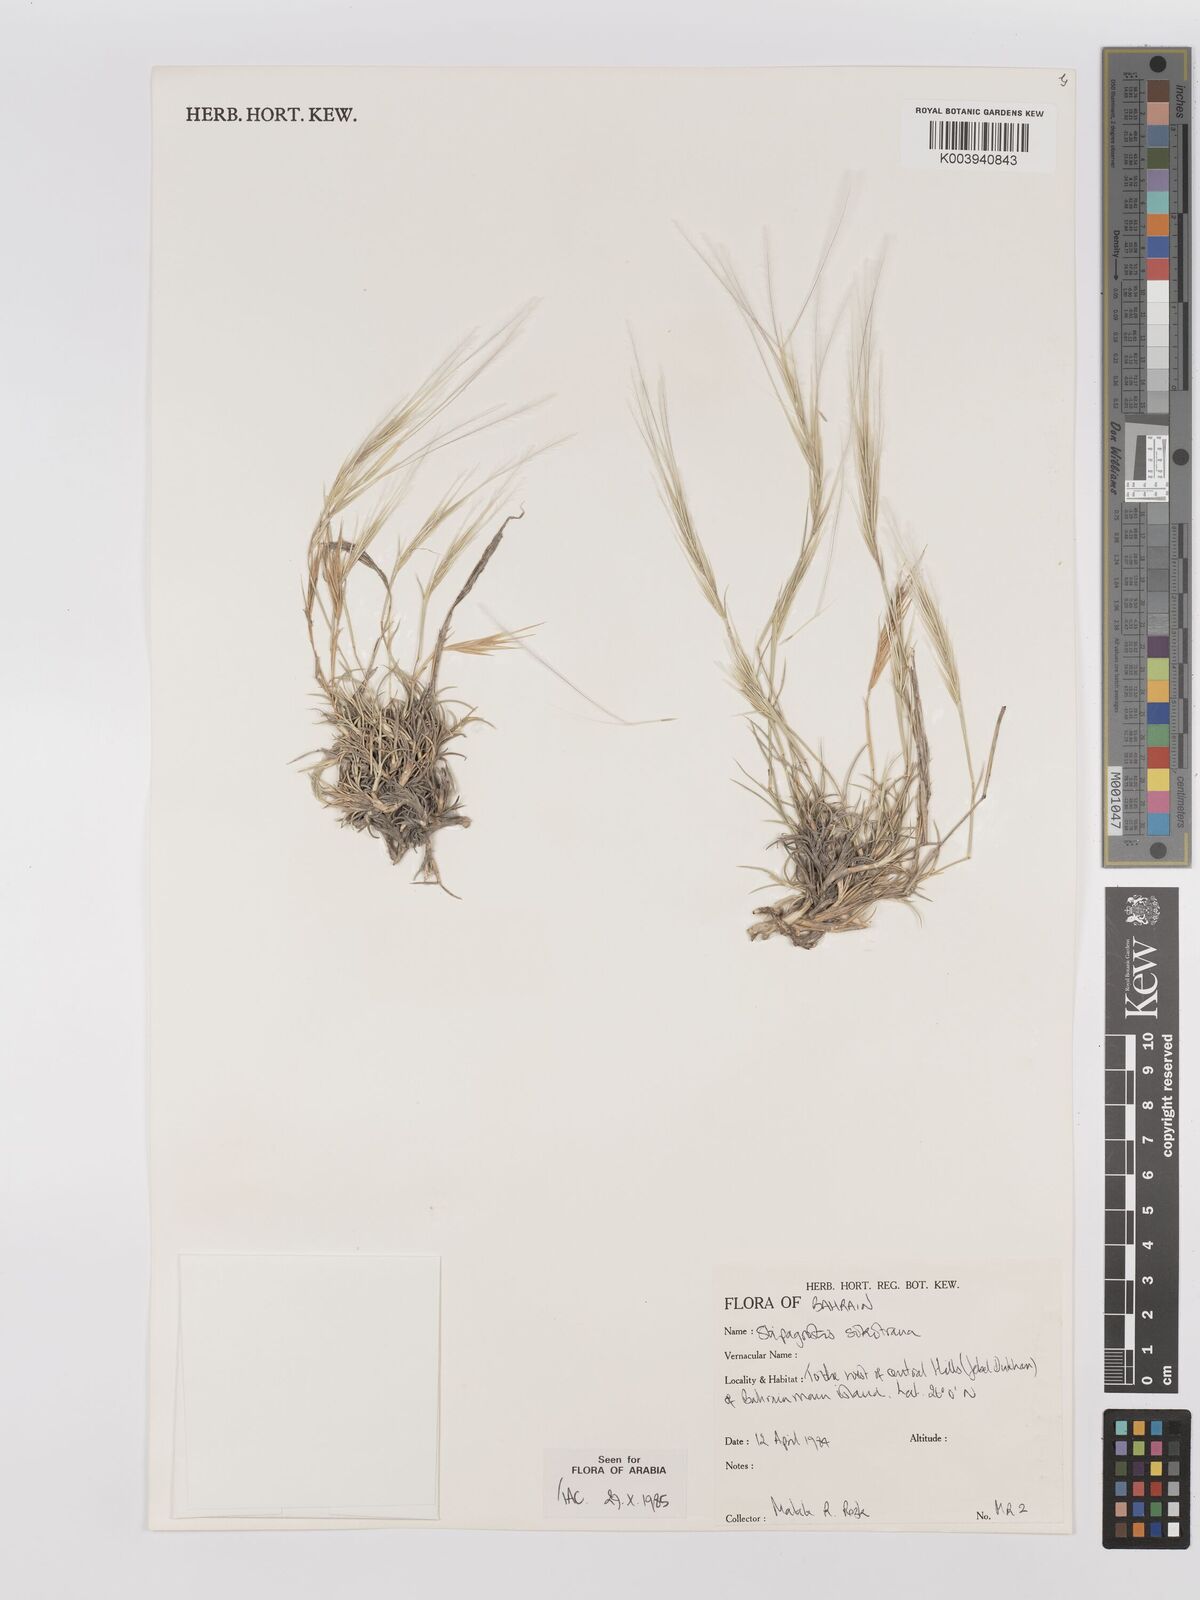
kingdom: Plantae
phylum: Tracheophyta
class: Liliopsida
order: Poales
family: Poaceae
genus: Stipagrostis
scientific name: Stipagrostis sokotrana
